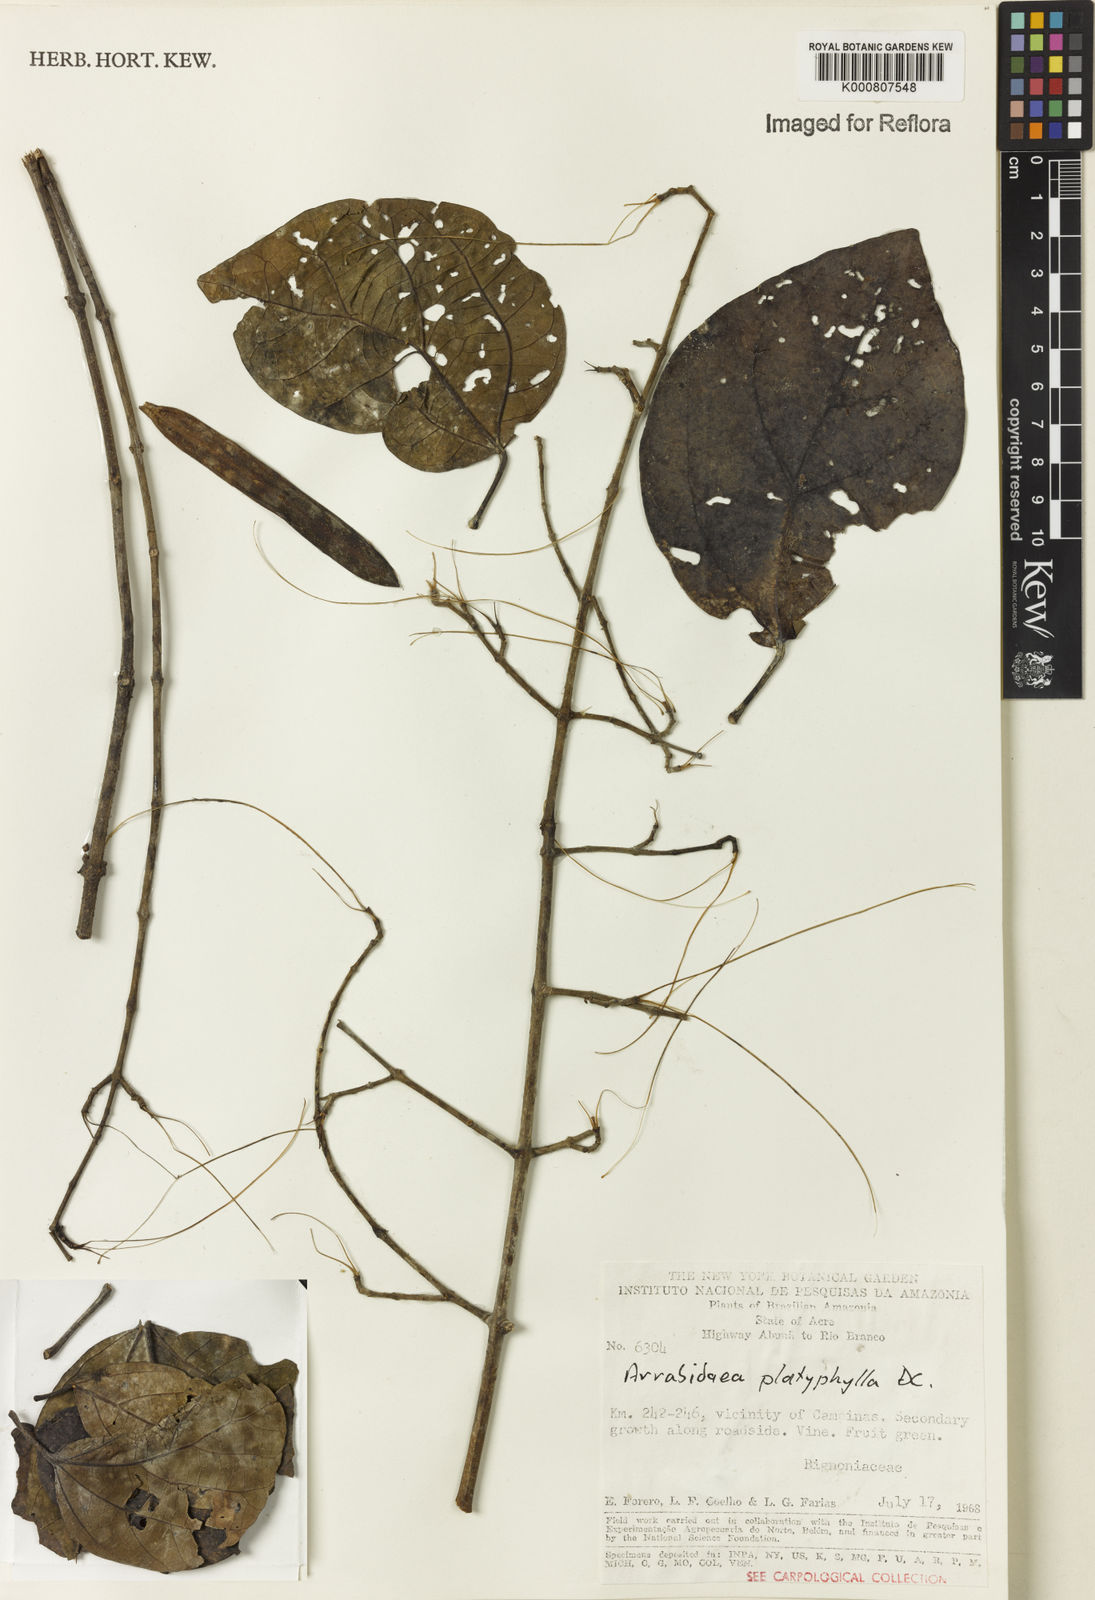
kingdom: Plantae
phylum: Tracheophyta
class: Magnoliopsida
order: Lamiales
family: Bignoniaceae
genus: Xylophragma
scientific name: Xylophragma platyphyllum
